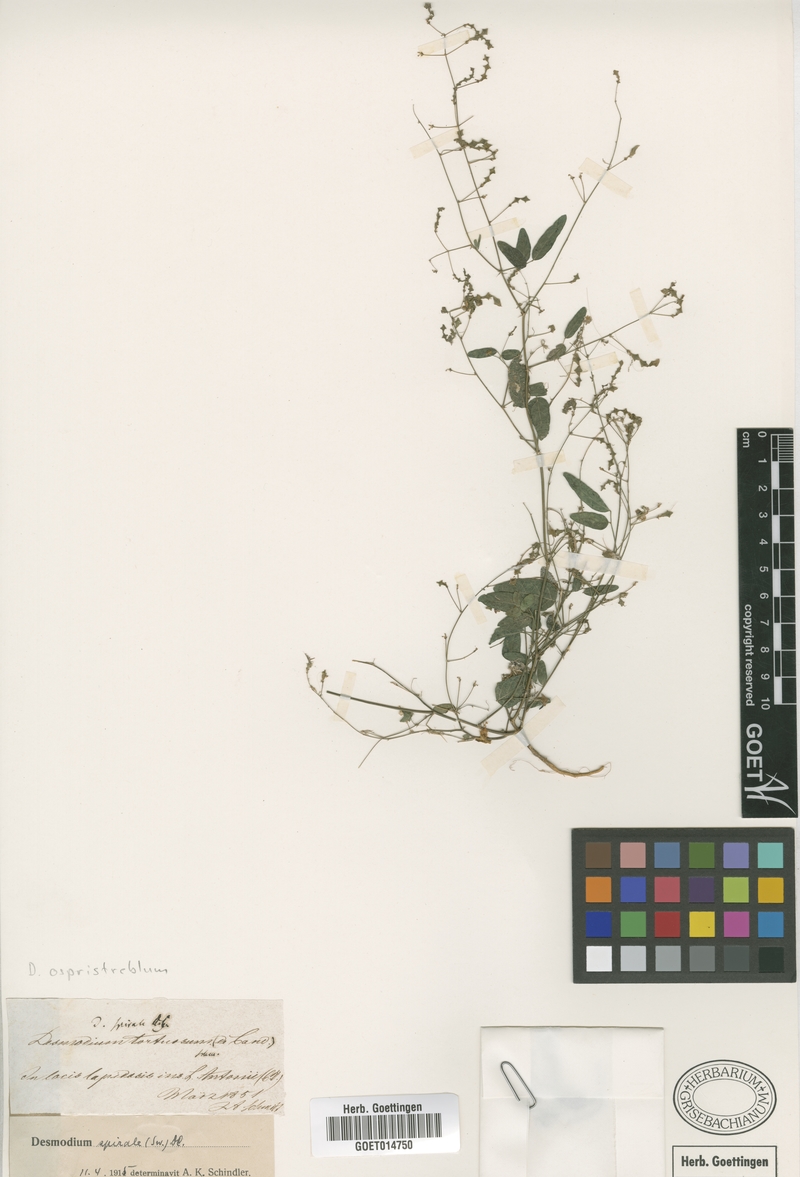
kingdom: Plantae
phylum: Tracheophyta
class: Magnoliopsida
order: Fabales
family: Fabaceae
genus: Desmodium
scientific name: Desmodium ospriostreblum
